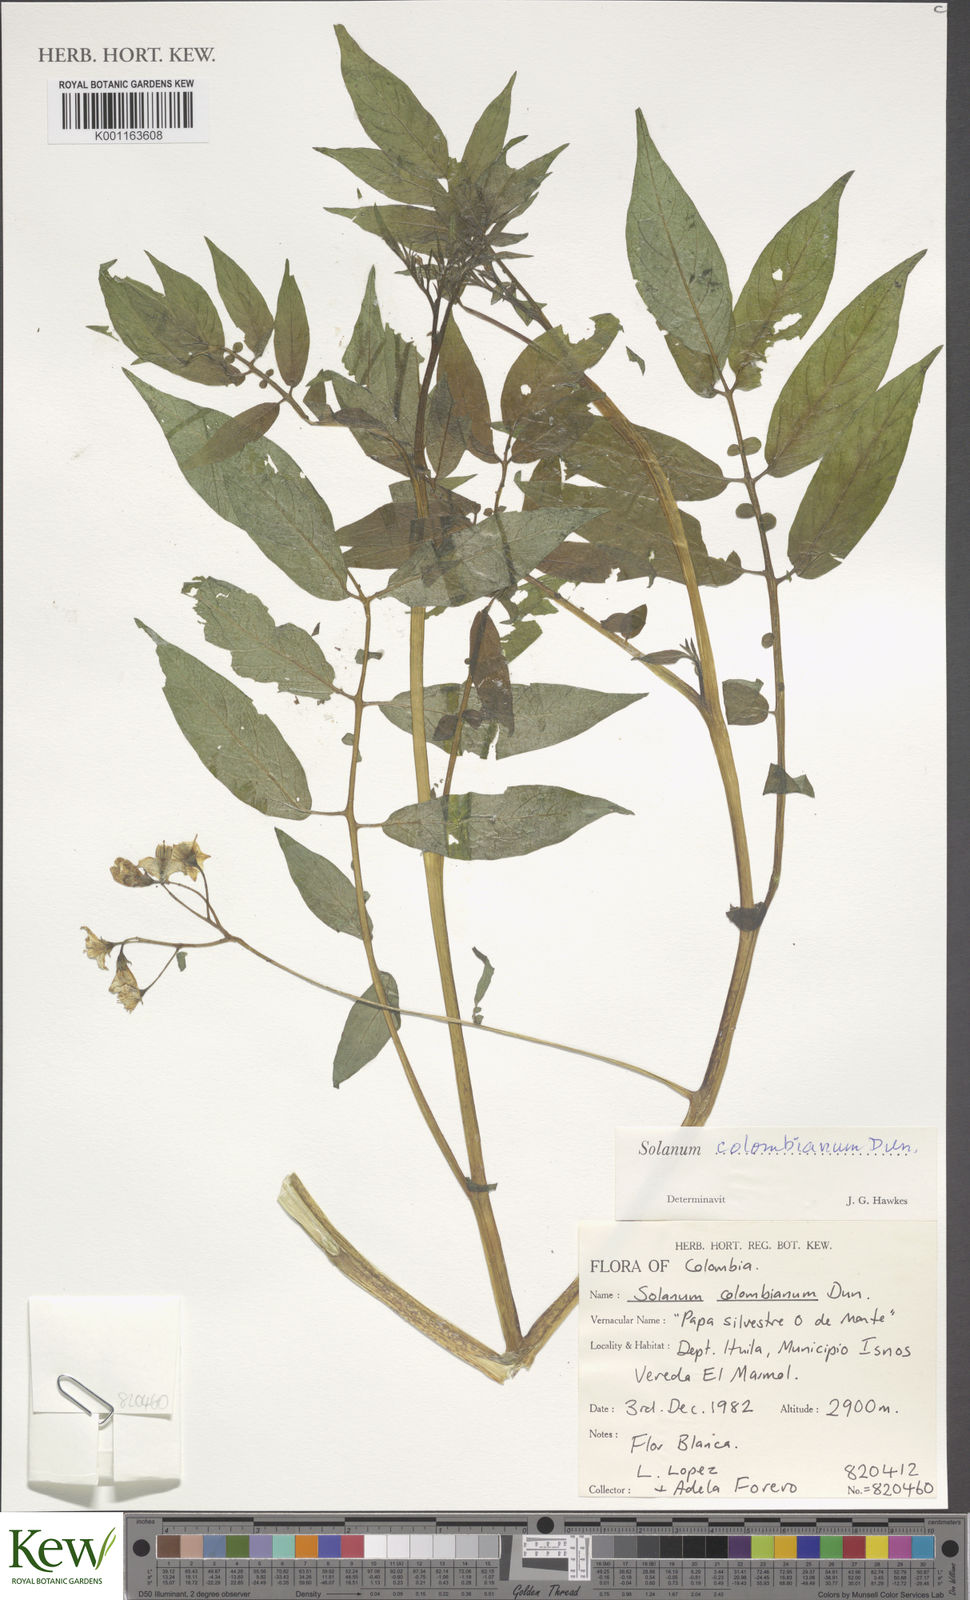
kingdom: Plantae
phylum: Tracheophyta
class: Magnoliopsida
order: Solanales
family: Solanaceae
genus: Solanum
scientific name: Solanum colombianum
